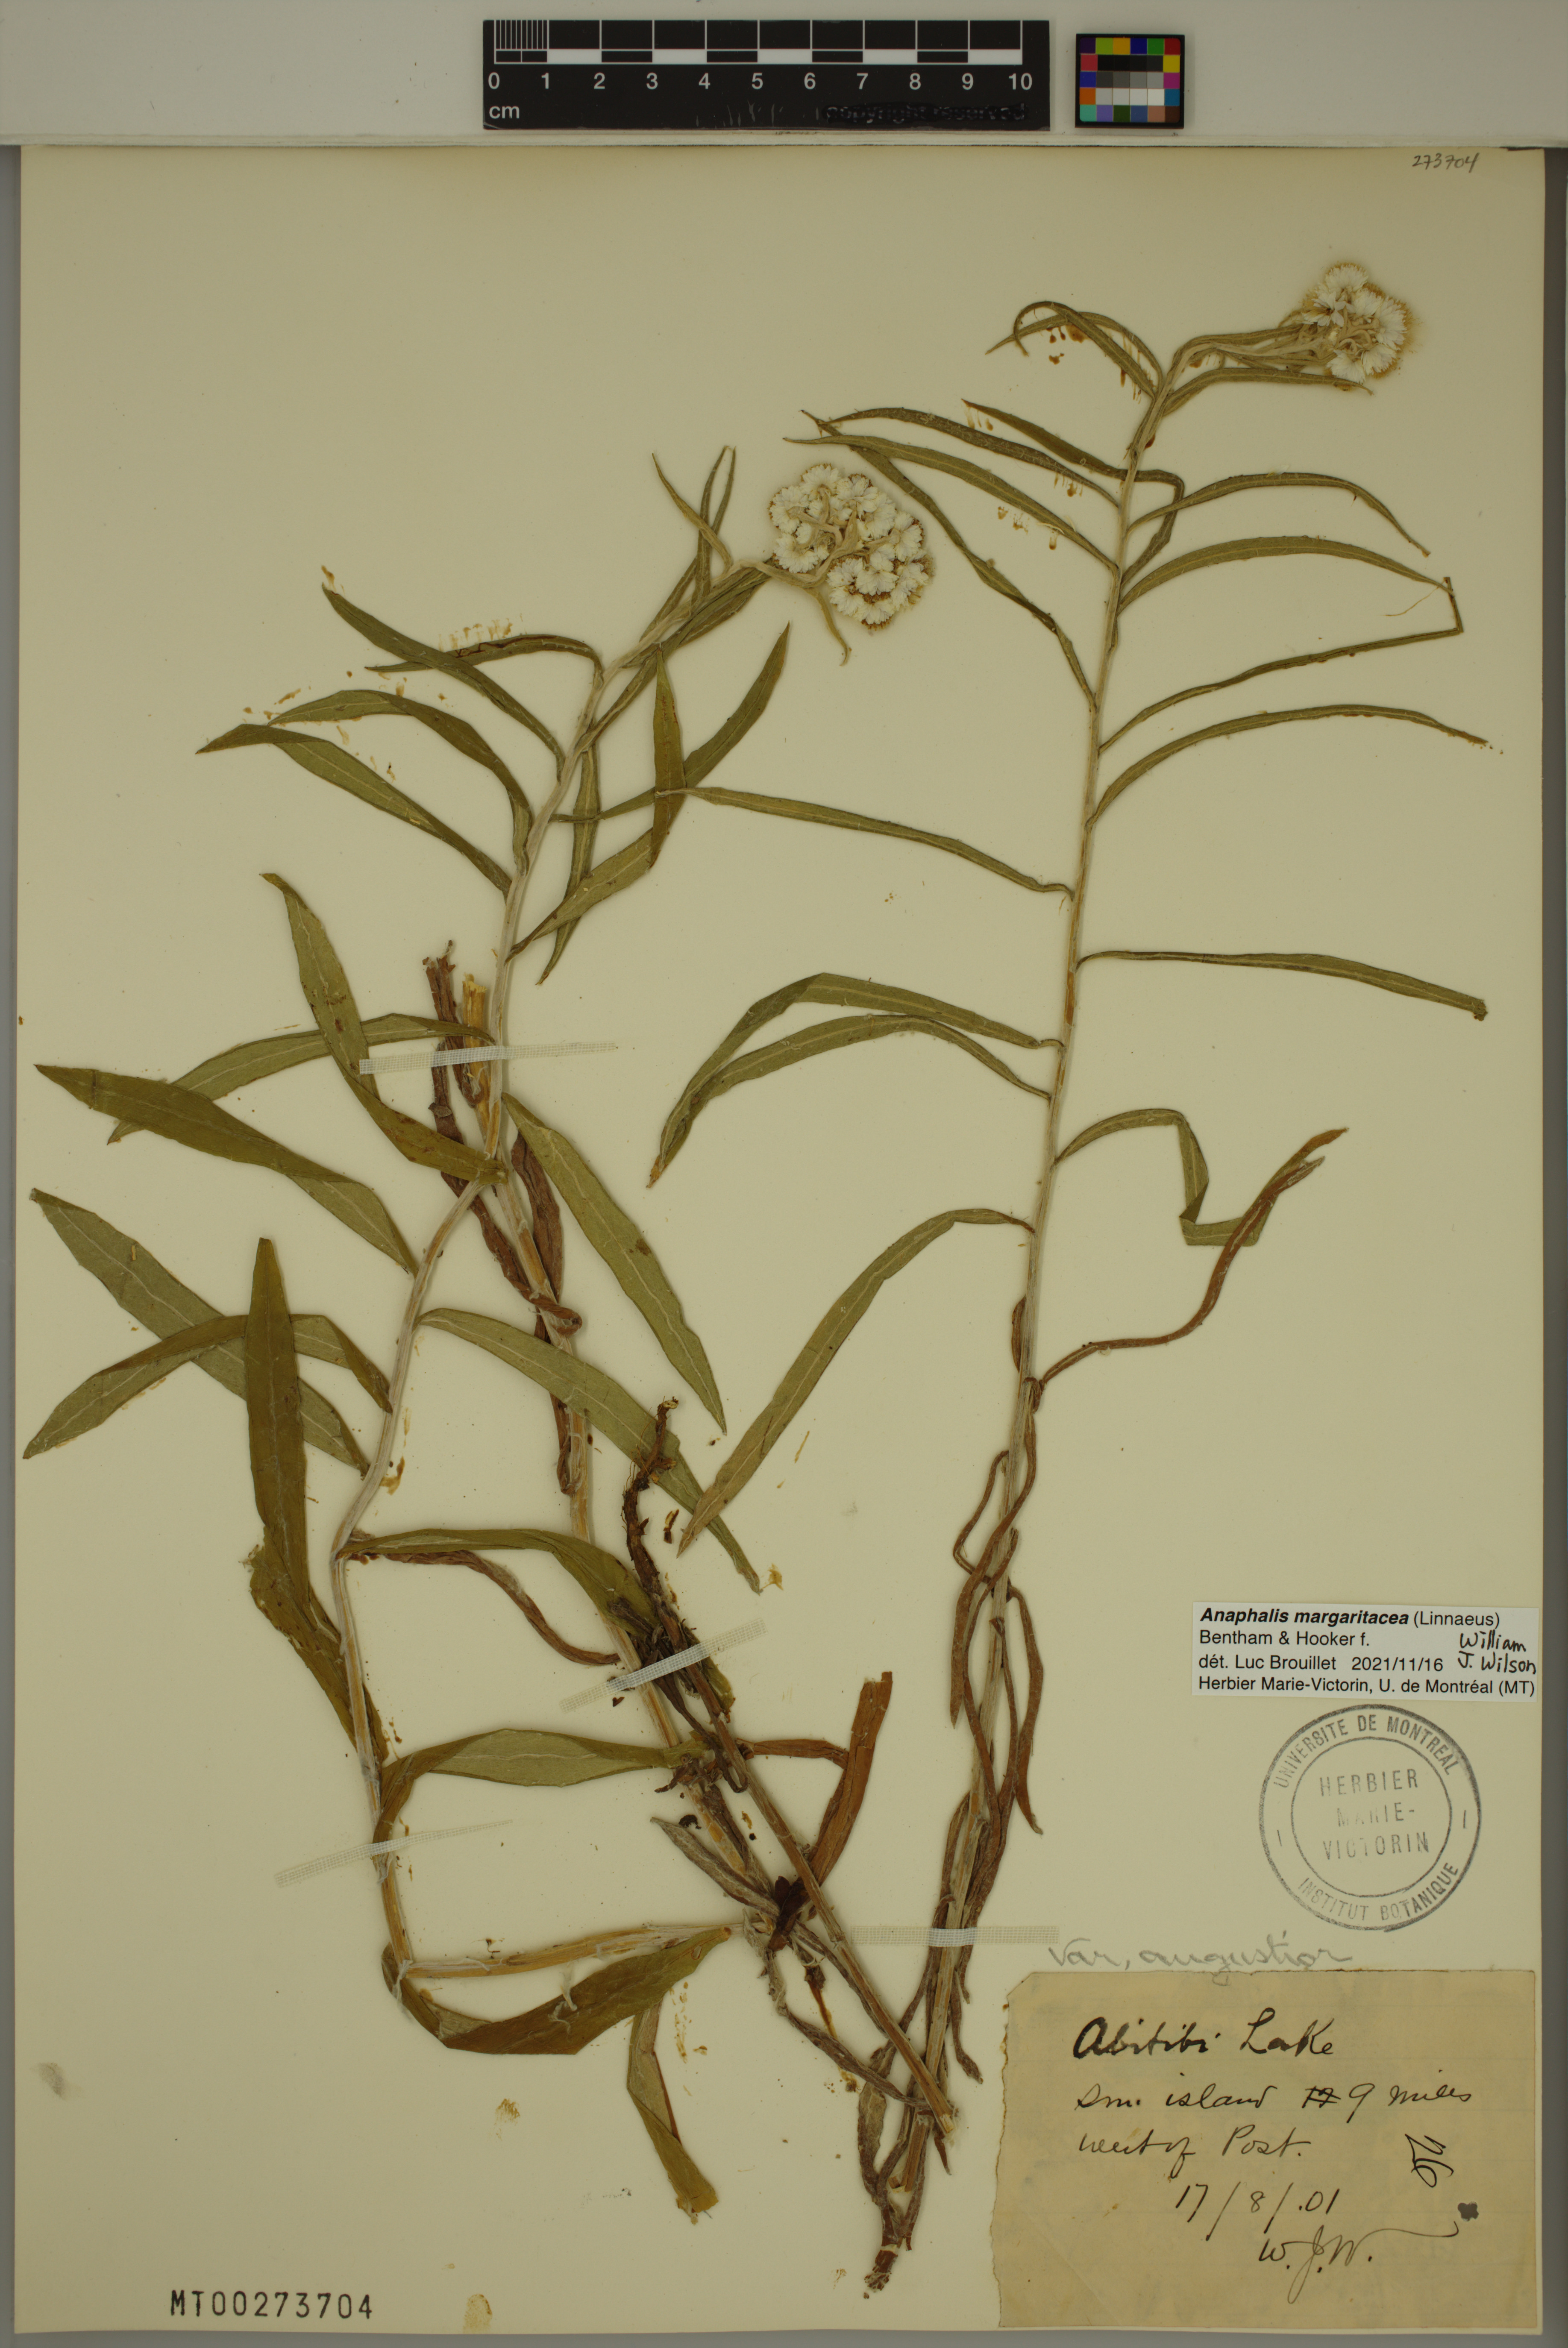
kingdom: Plantae
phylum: Tracheophyta
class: Magnoliopsida
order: Asterales
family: Asteraceae
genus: Anaphalis
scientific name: Anaphalis margaritacea
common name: Pearly everlasting
